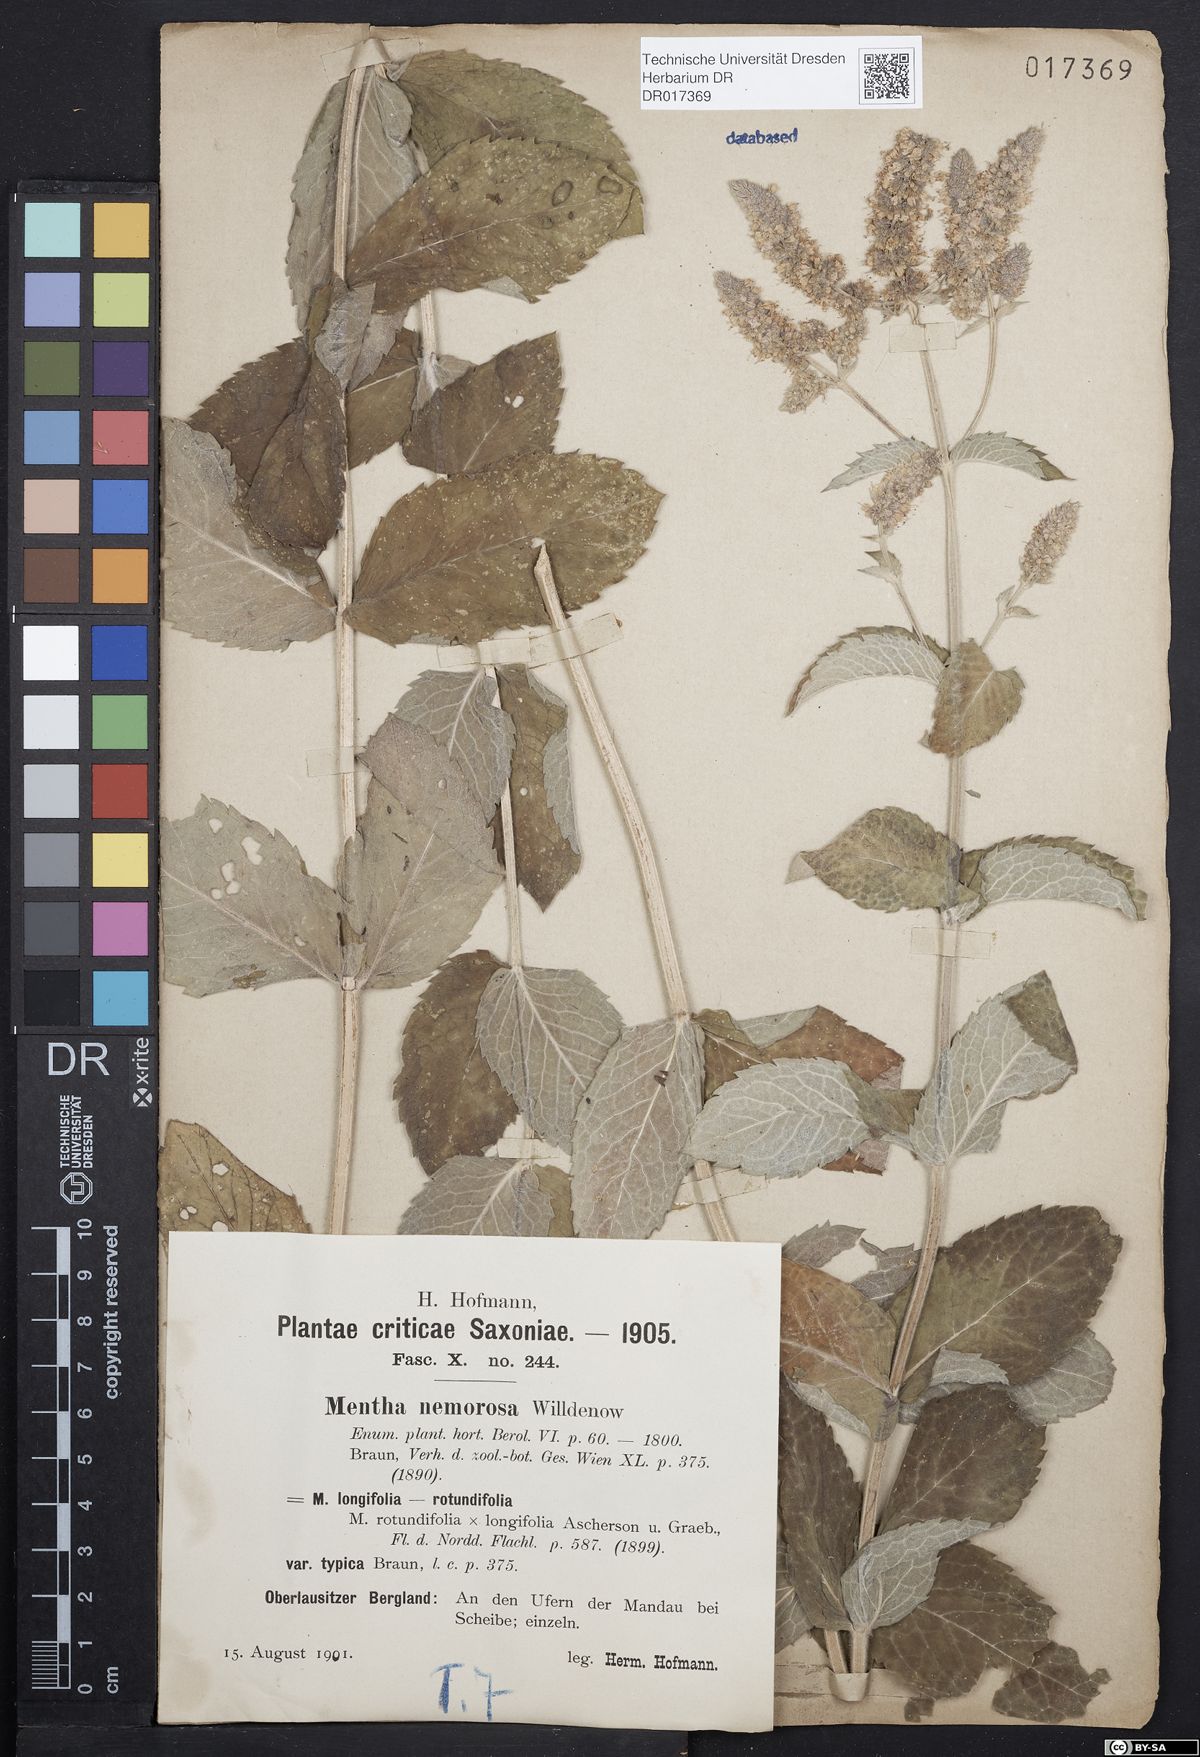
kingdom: Plantae
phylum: Tracheophyta
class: Magnoliopsida
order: Lamiales
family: Lamiaceae
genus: Mentha
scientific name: Mentha villosa
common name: Apple mint
